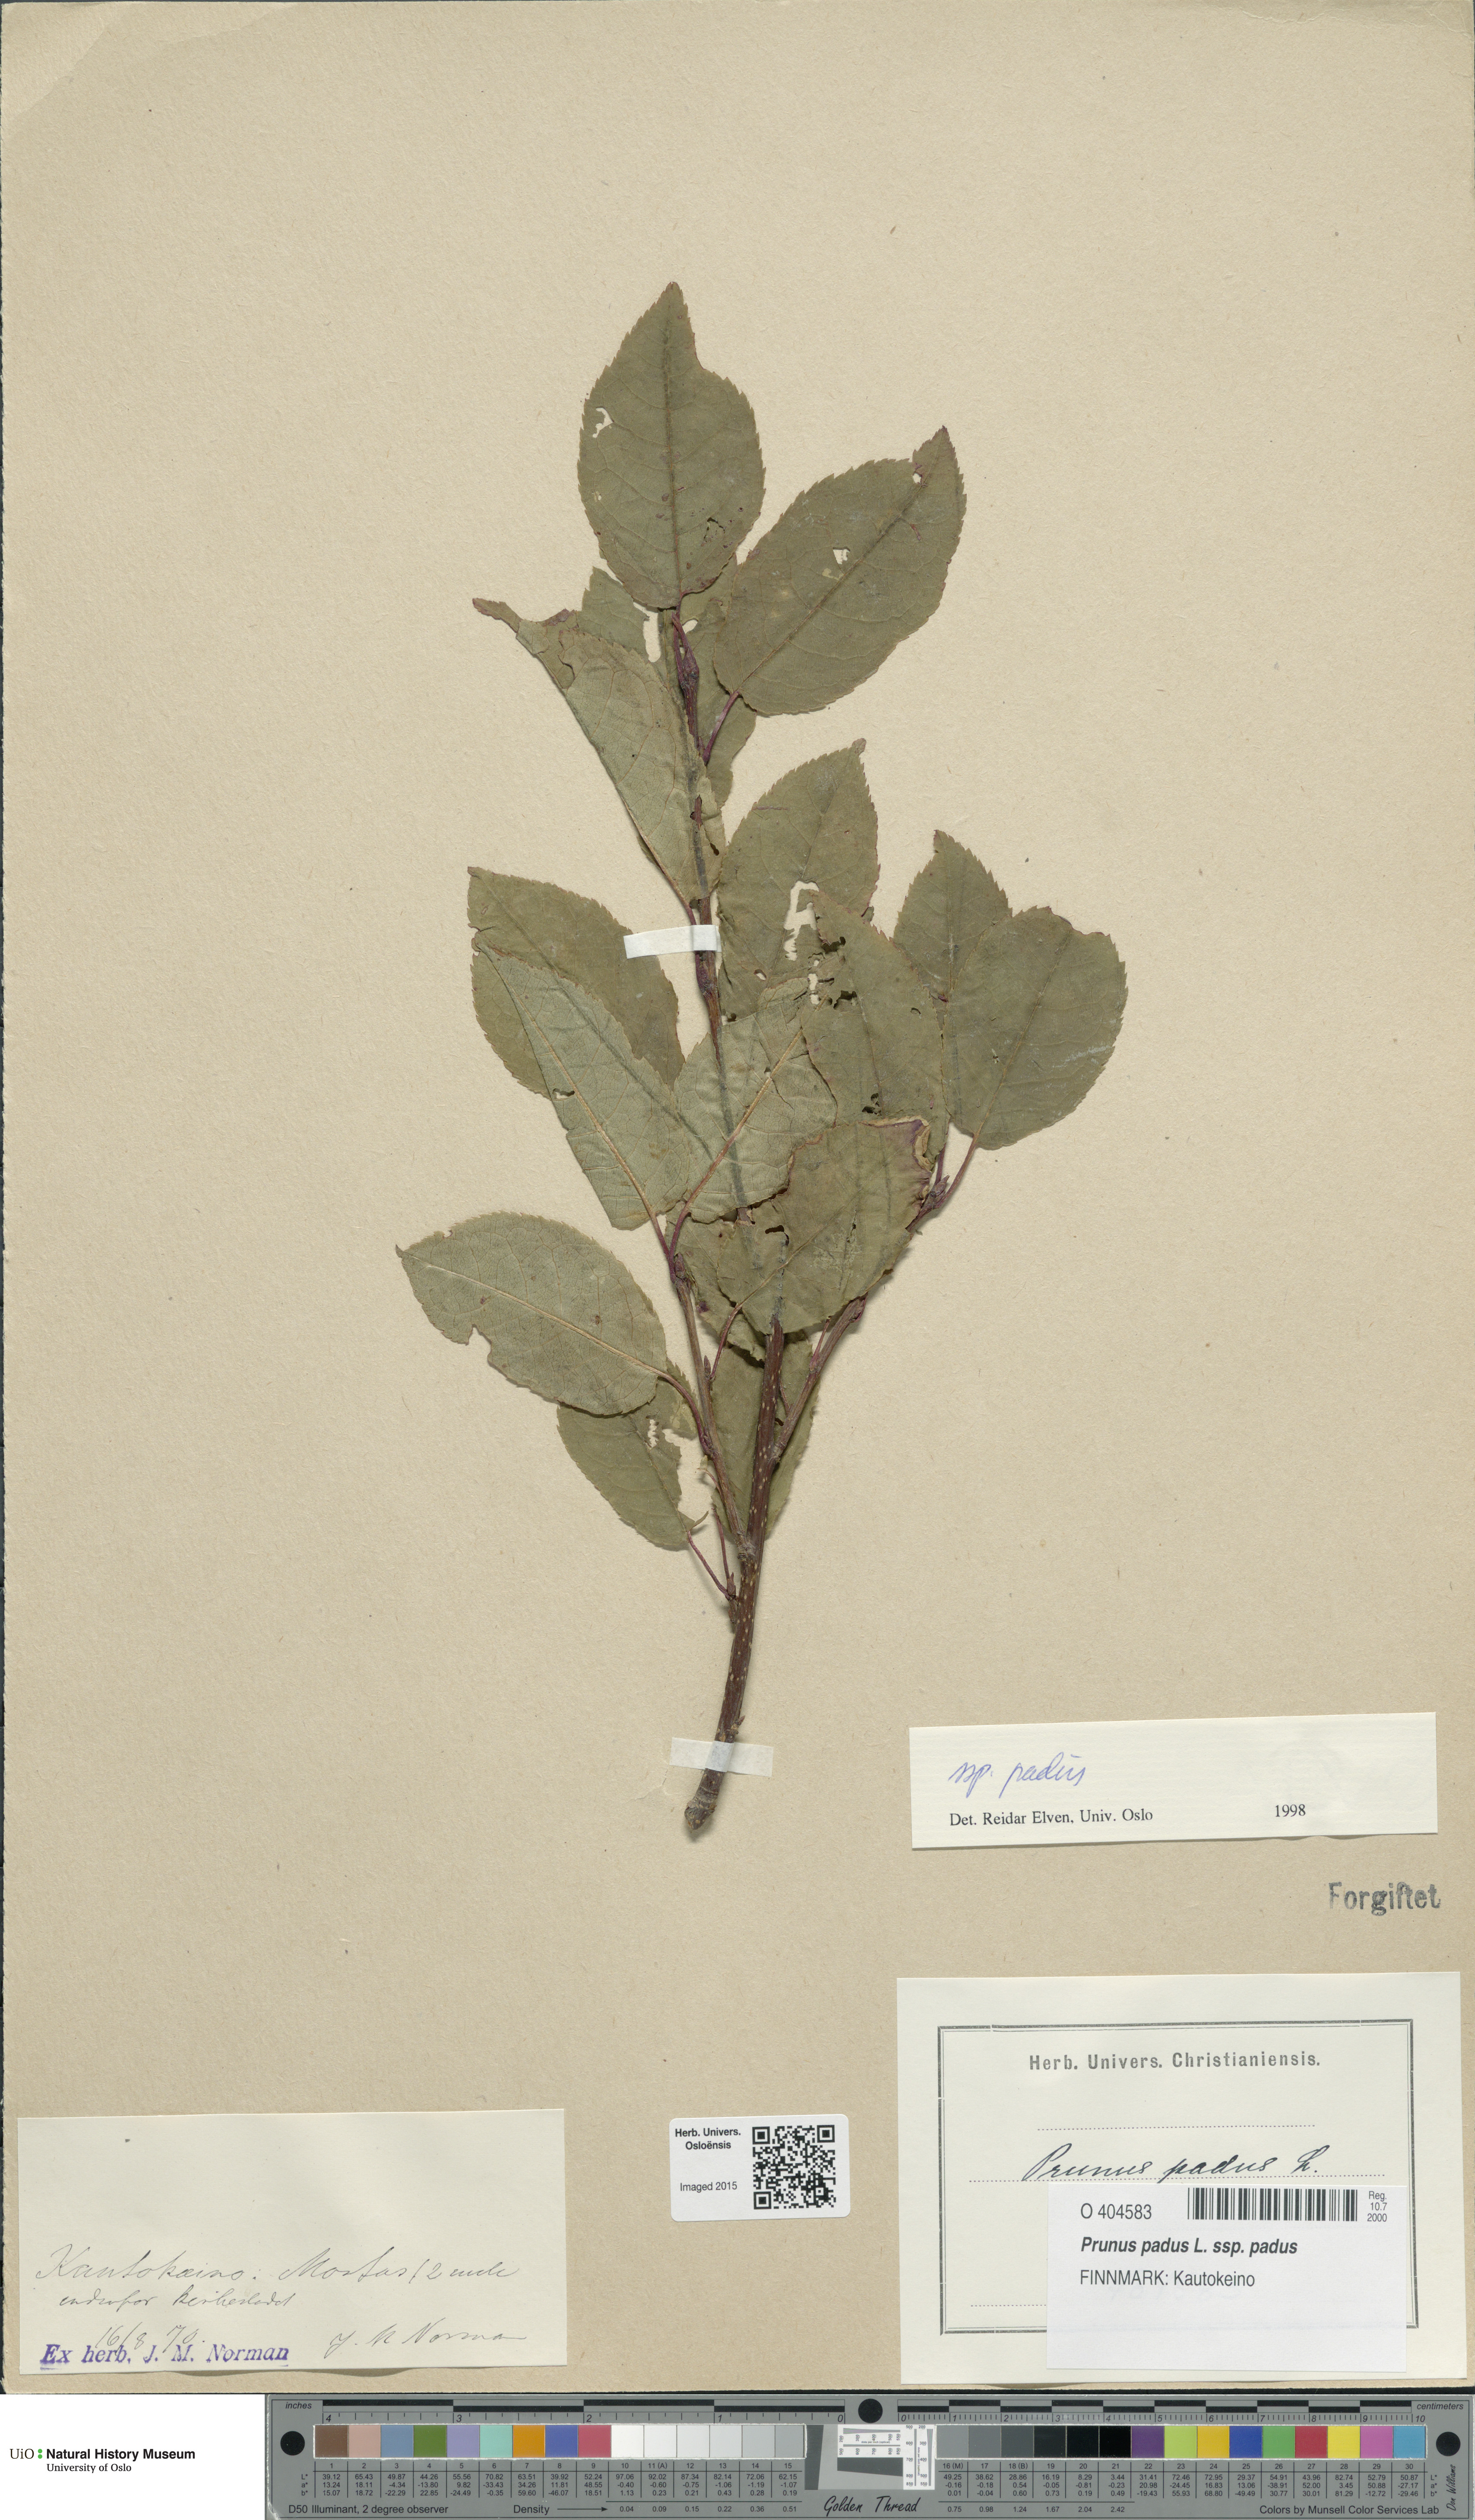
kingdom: Plantae
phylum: Tracheophyta
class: Magnoliopsida
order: Rosales
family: Rosaceae
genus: Prunus
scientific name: Prunus padus
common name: Bird cherry
